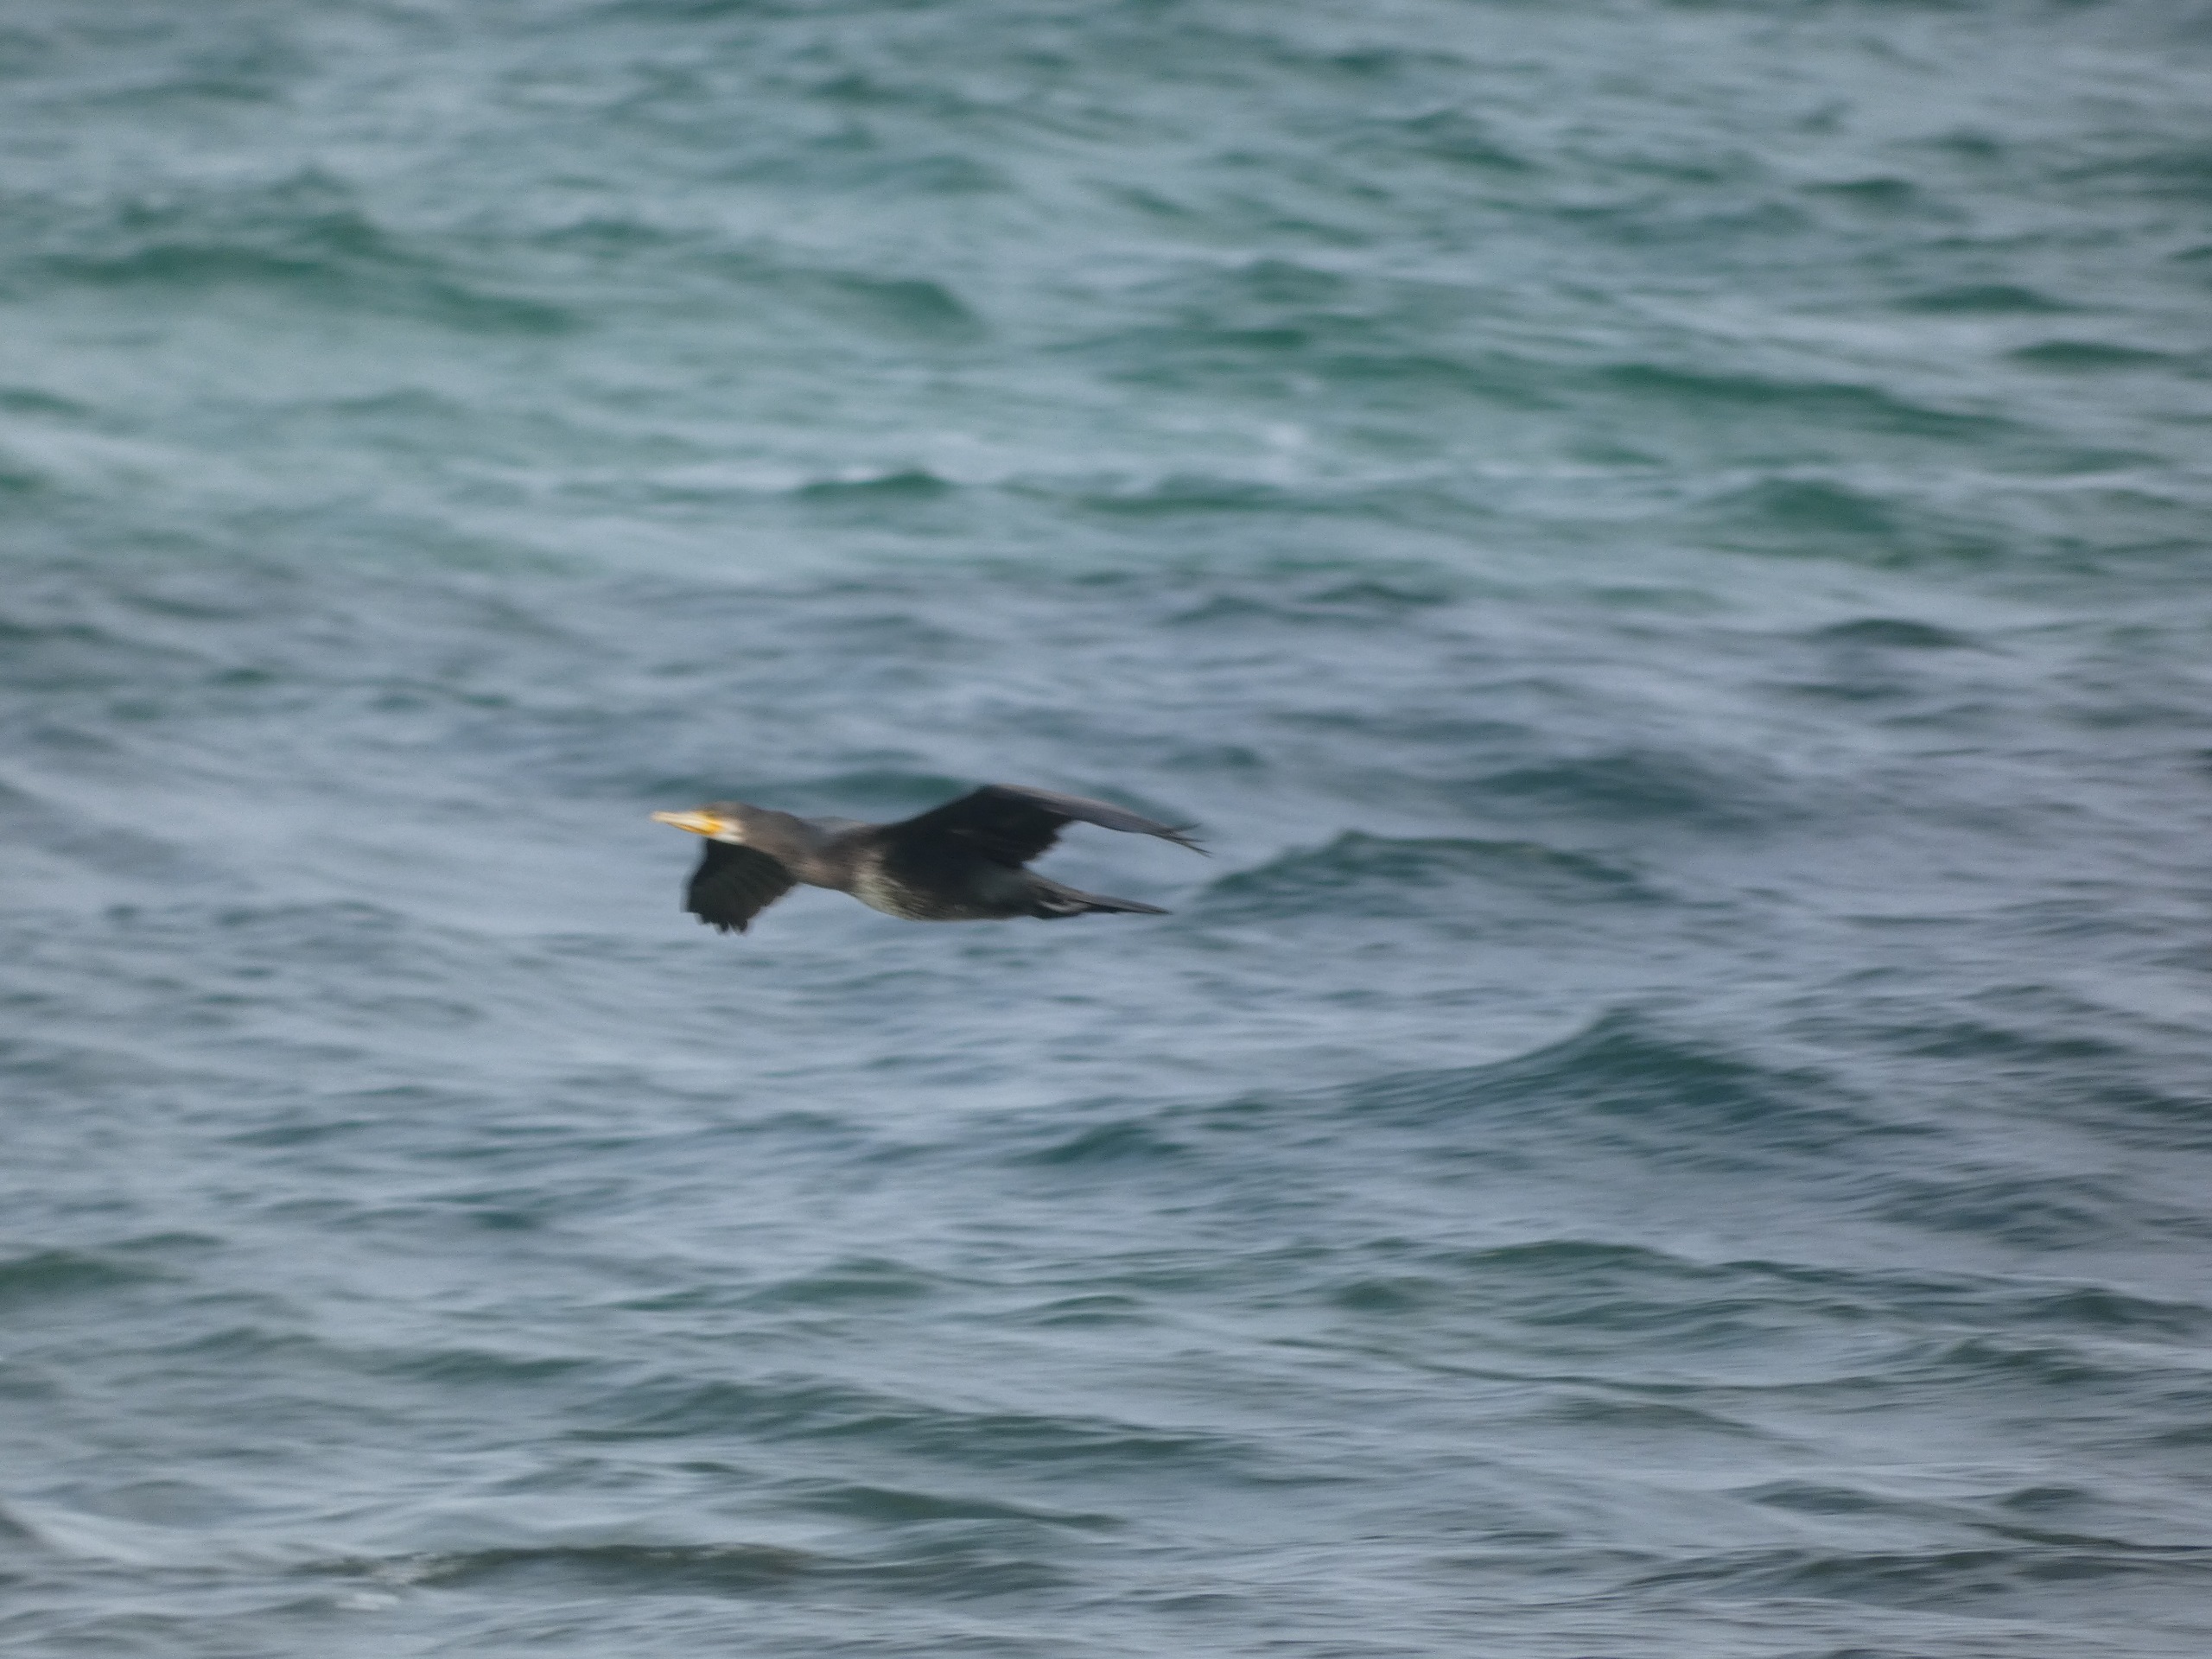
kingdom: Animalia
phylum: Chordata
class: Aves
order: Suliformes
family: Phalacrocoracidae
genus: Phalacrocorax
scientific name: Phalacrocorax carbo
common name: Skarv
